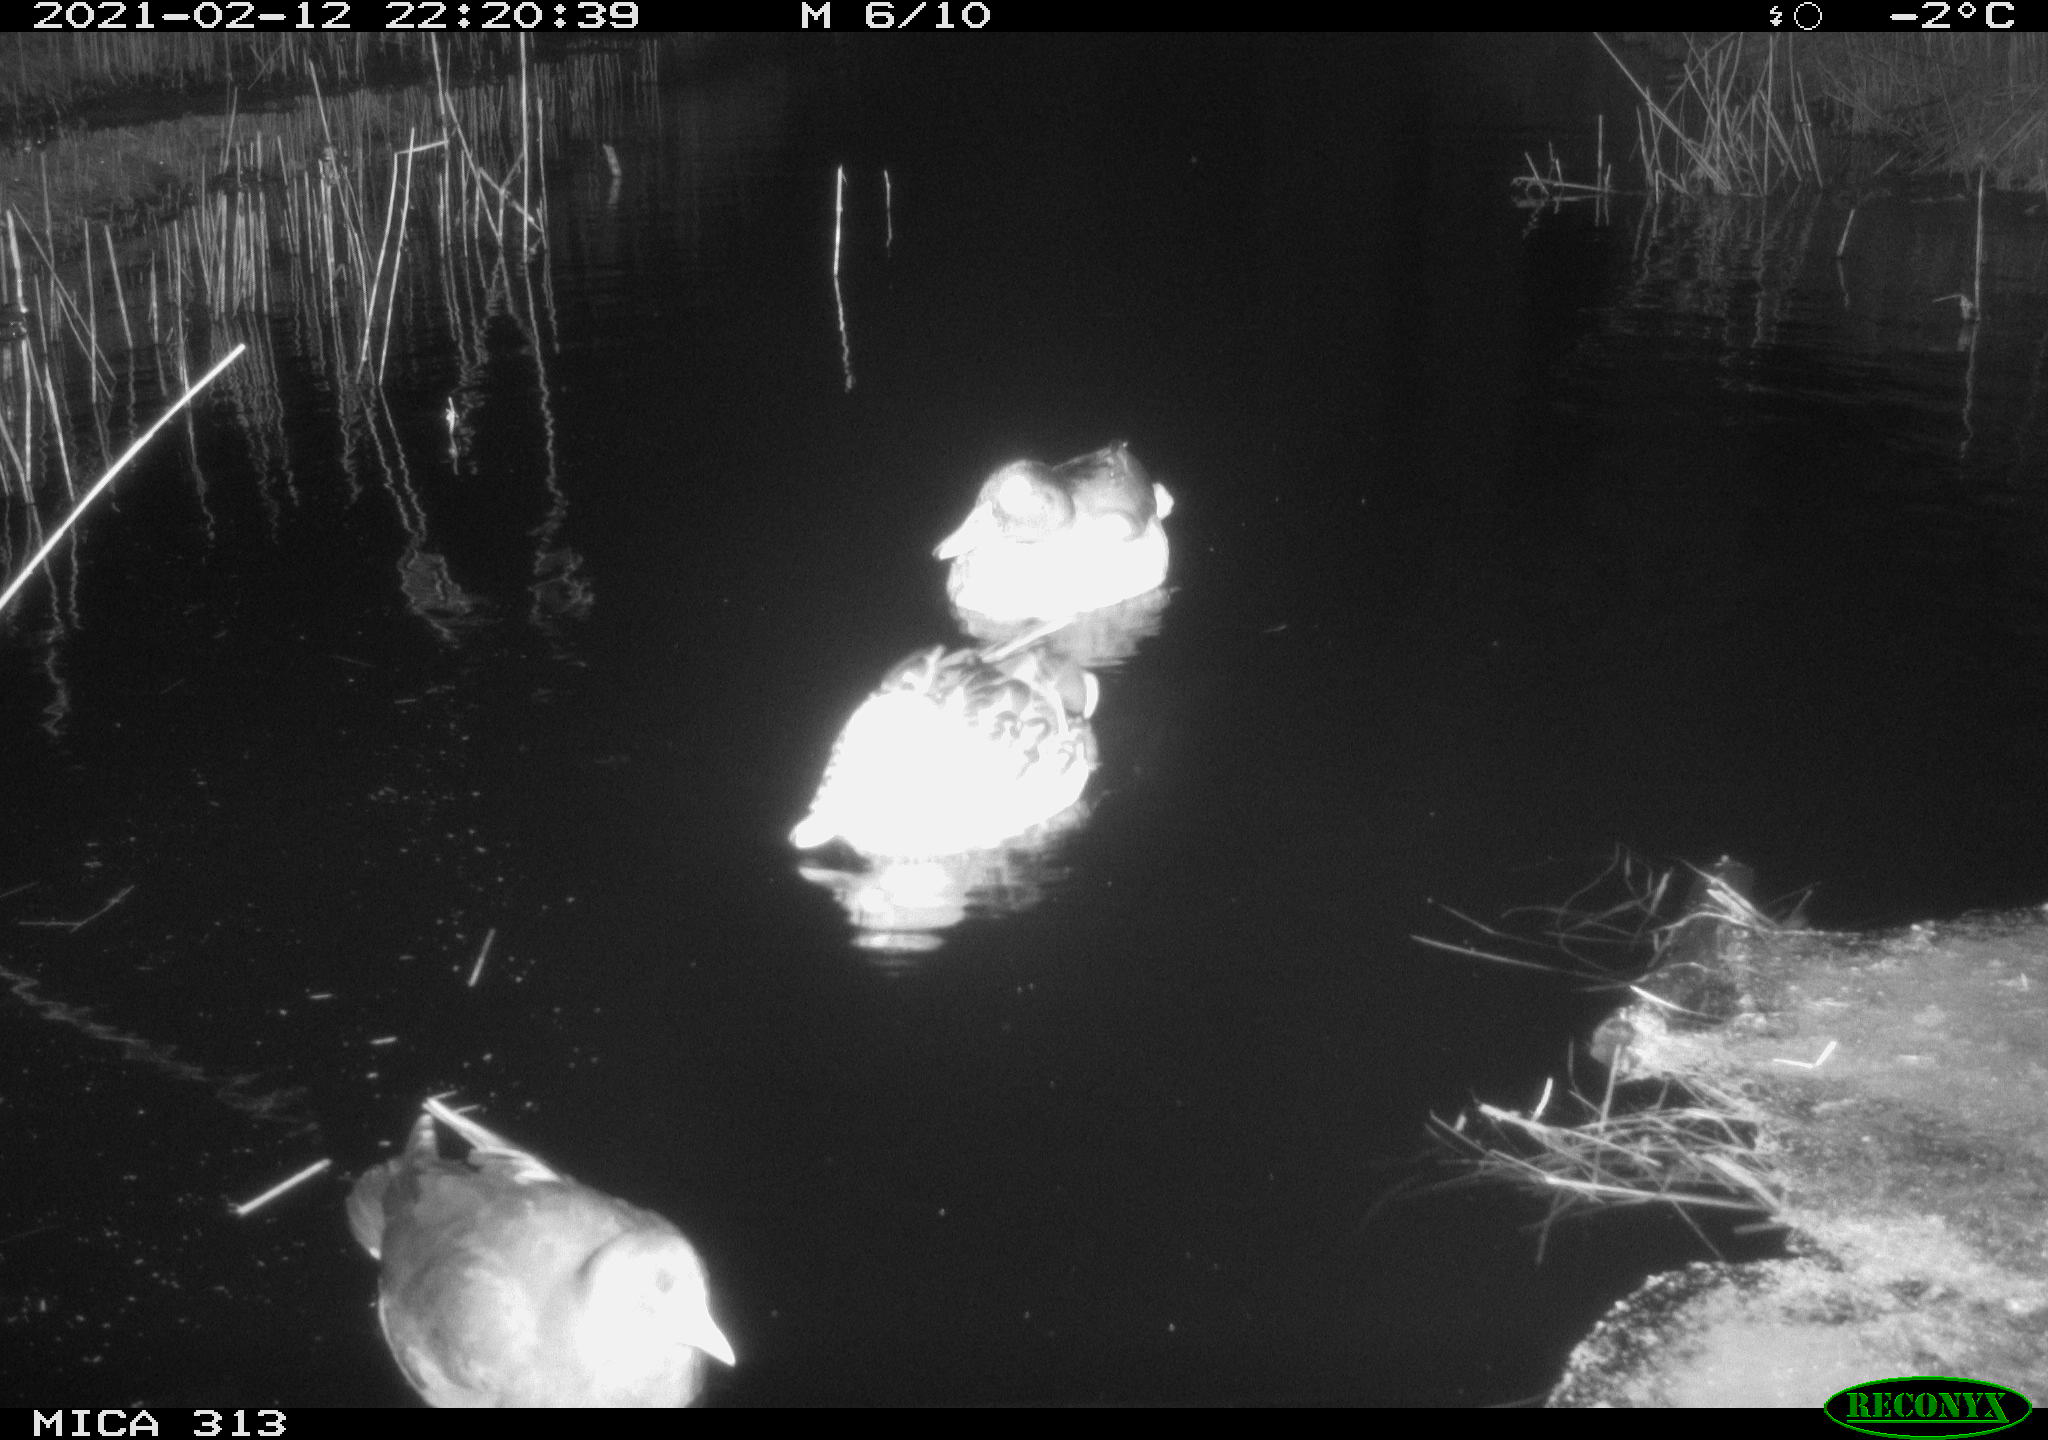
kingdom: Animalia
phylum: Chordata
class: Aves
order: Gruiformes
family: Rallidae
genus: Fulica
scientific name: Fulica atra
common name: Eurasian coot
